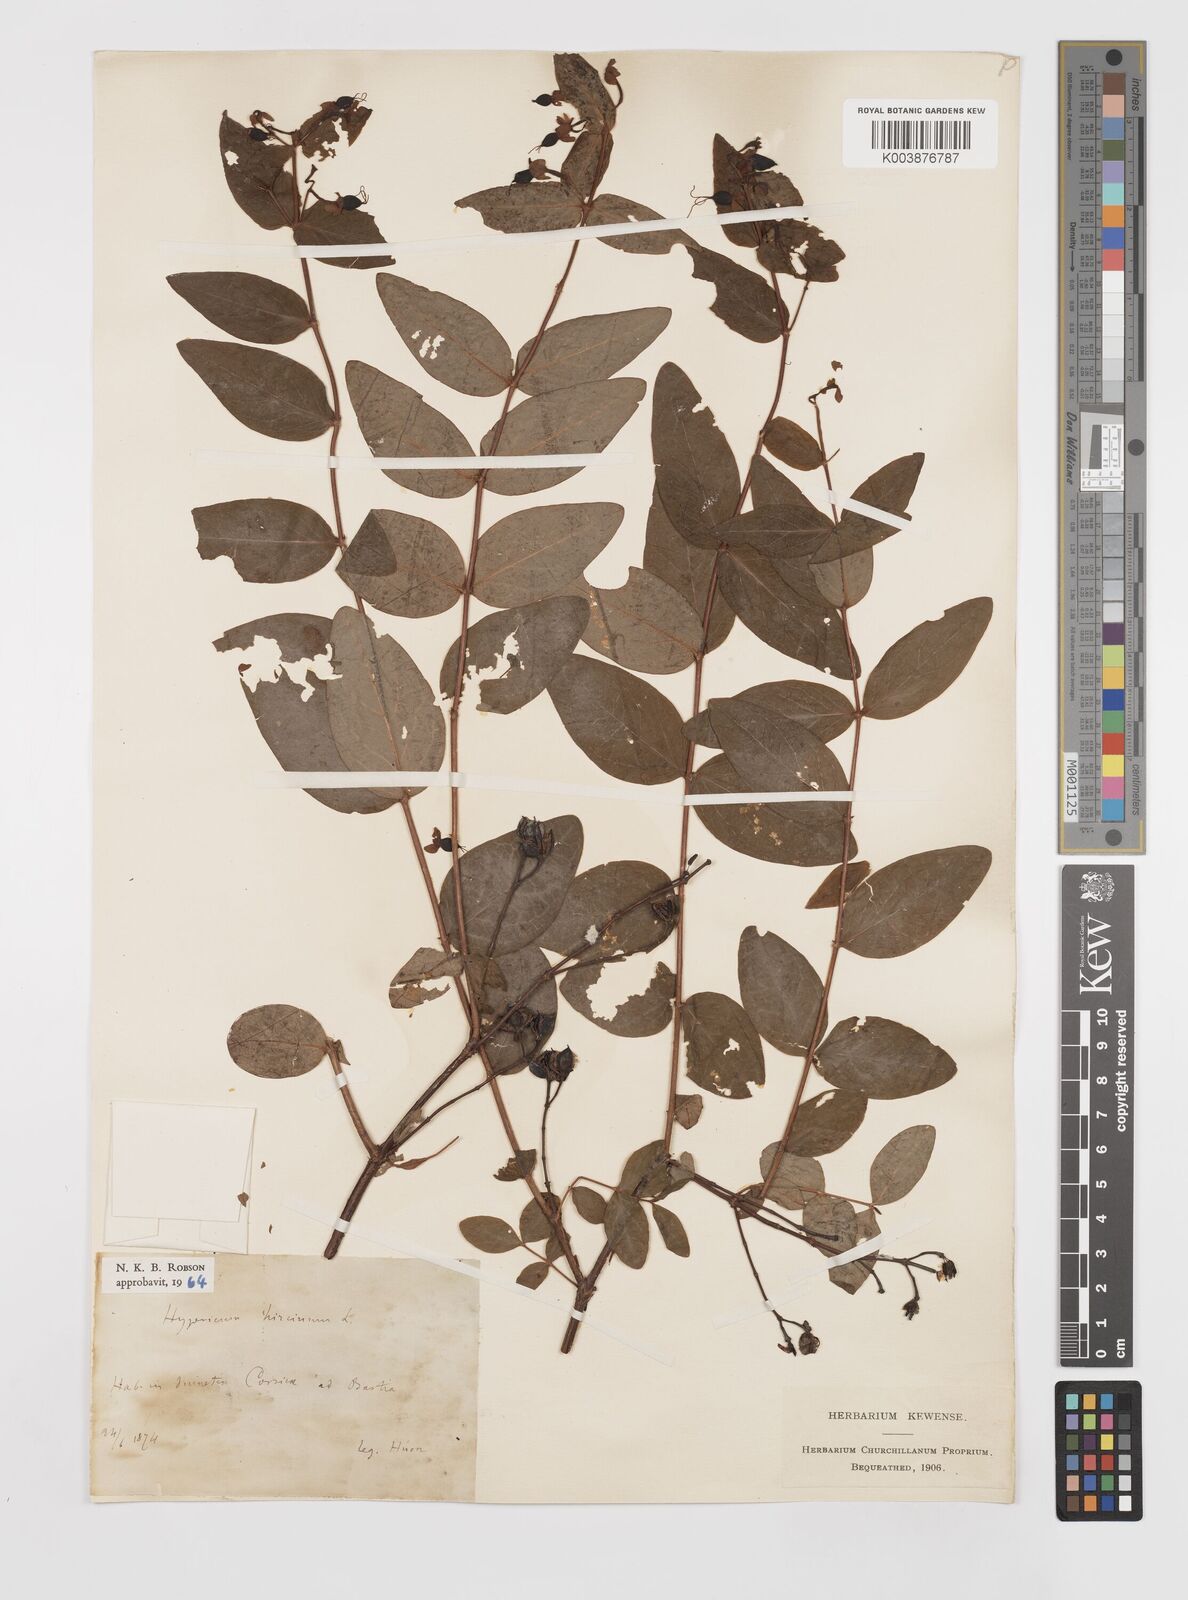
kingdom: Plantae
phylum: Tracheophyta
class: Magnoliopsida
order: Malpighiales
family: Hypericaceae
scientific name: Hypericaceae
